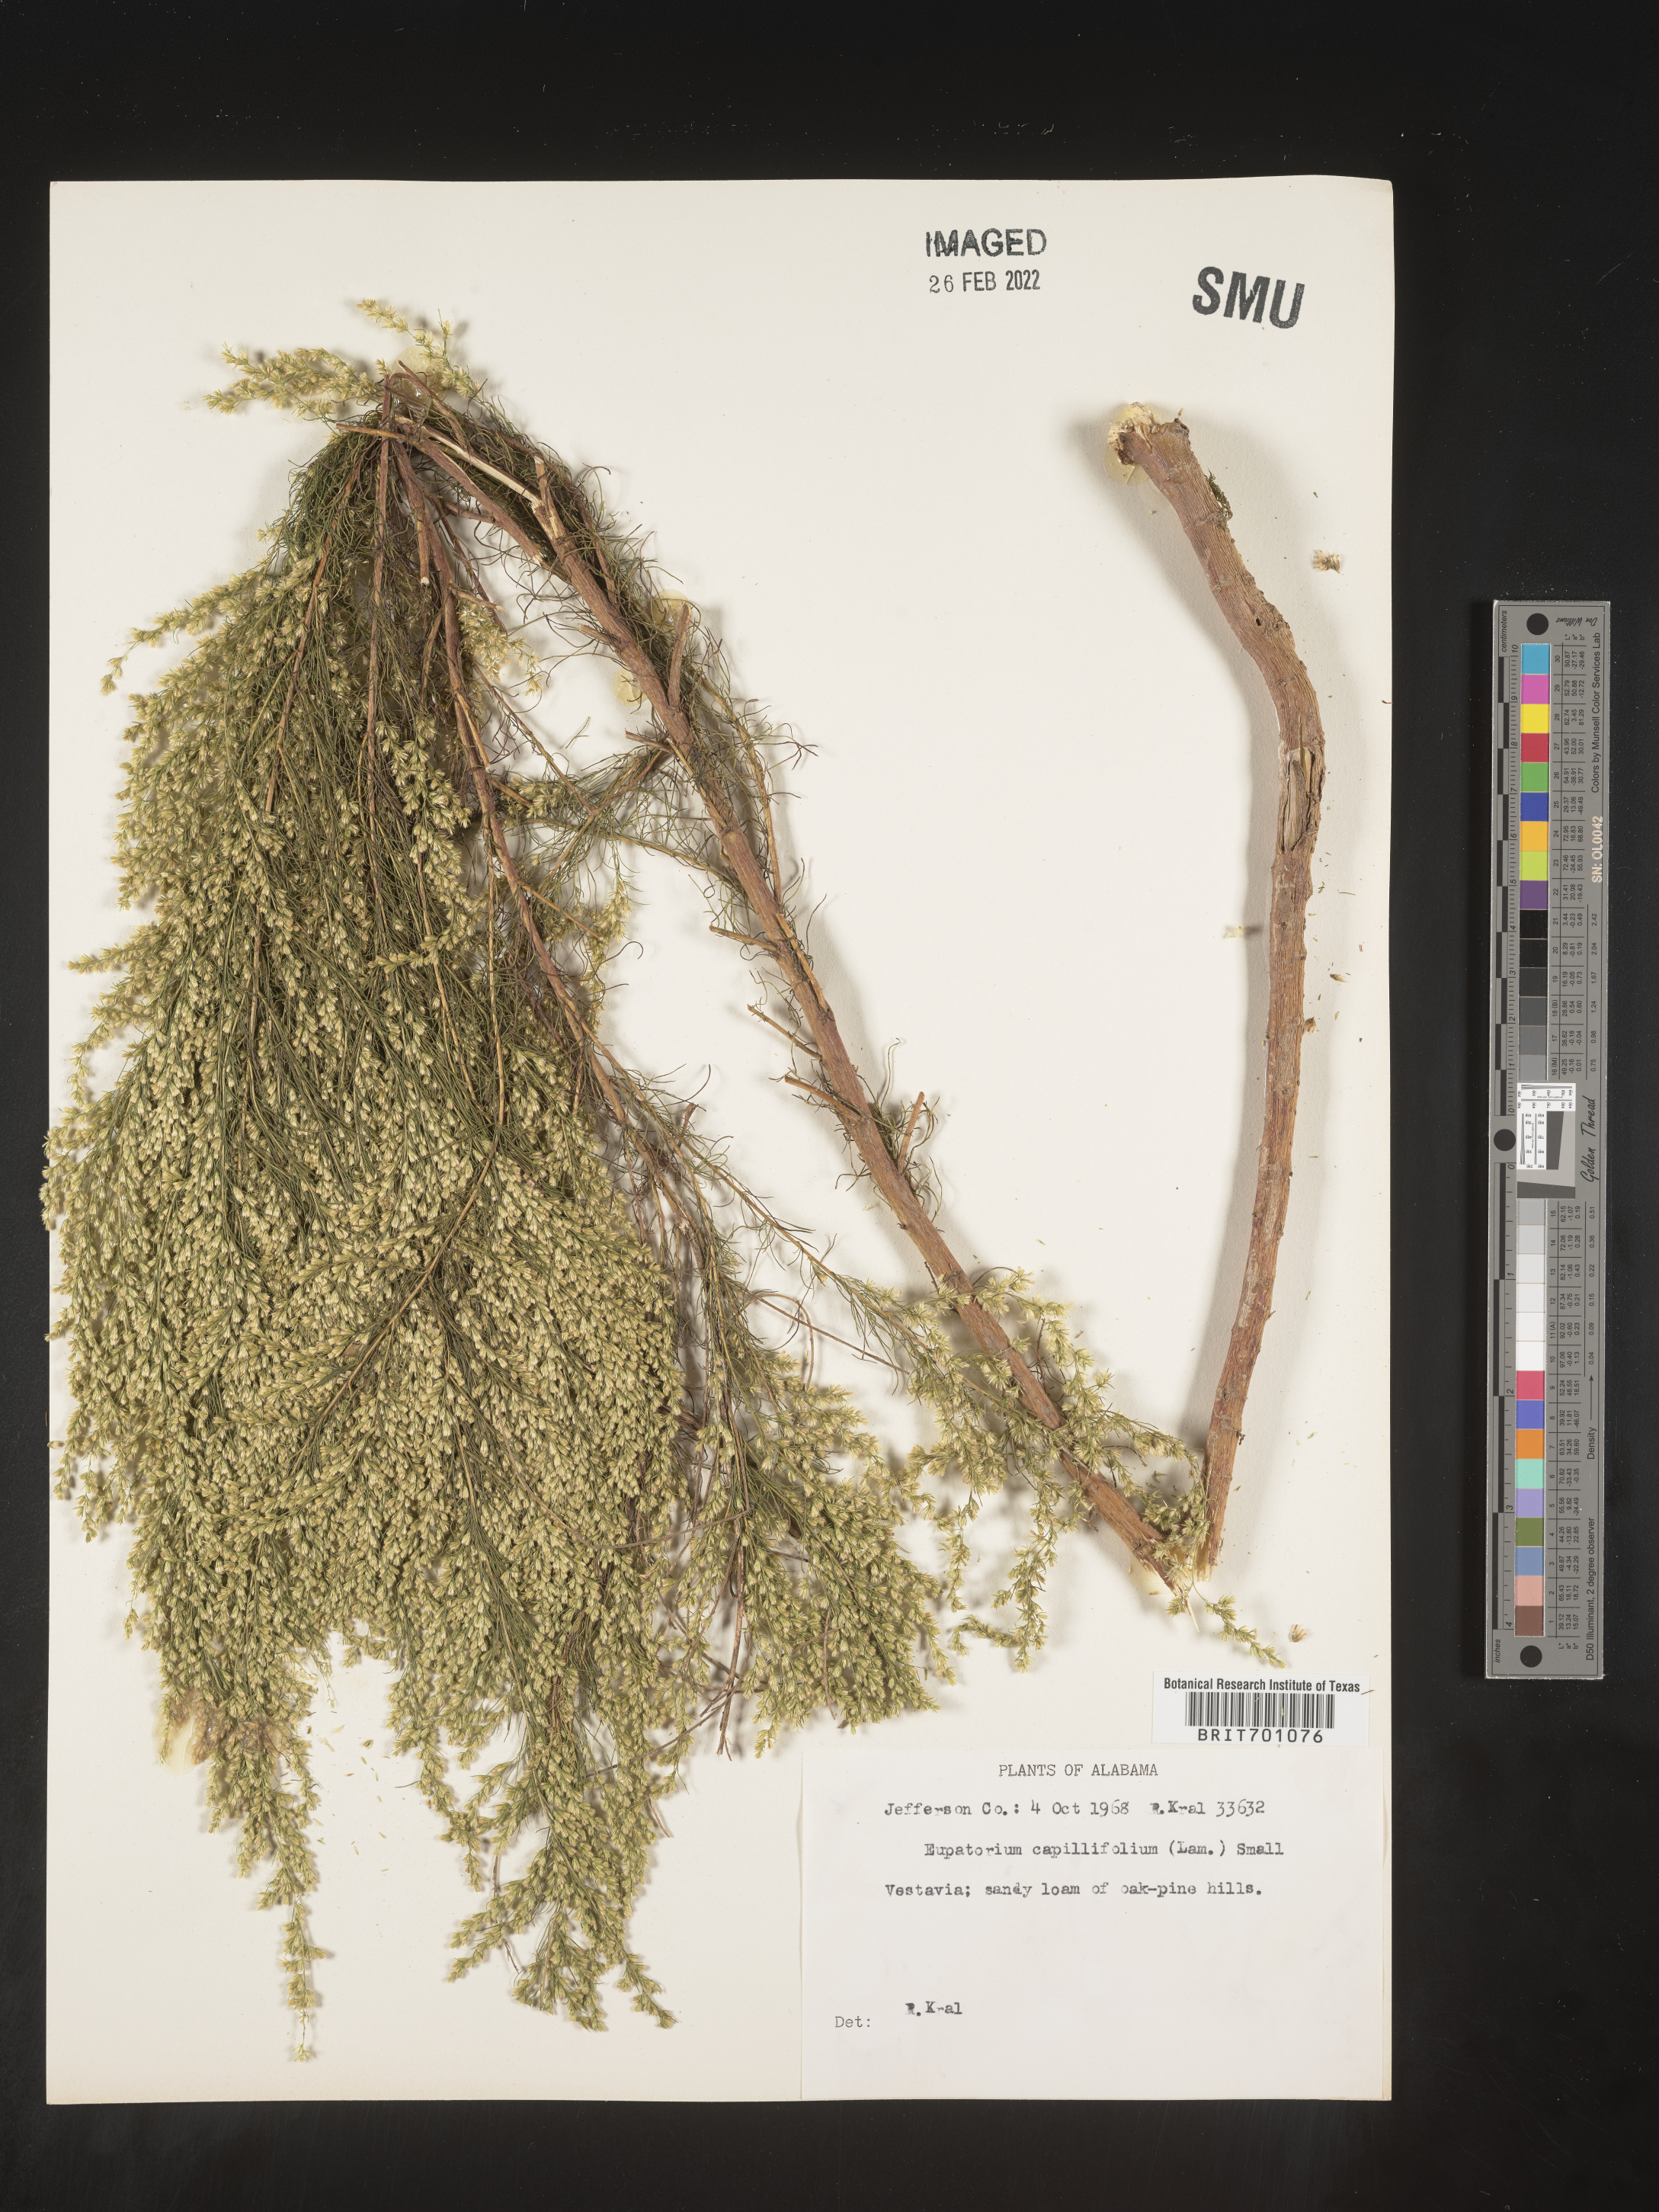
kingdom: Plantae
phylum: Tracheophyta
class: Magnoliopsida
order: Asterales
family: Asteraceae
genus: Eupatorium
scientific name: Eupatorium capillifolium
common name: Dog-fennel
